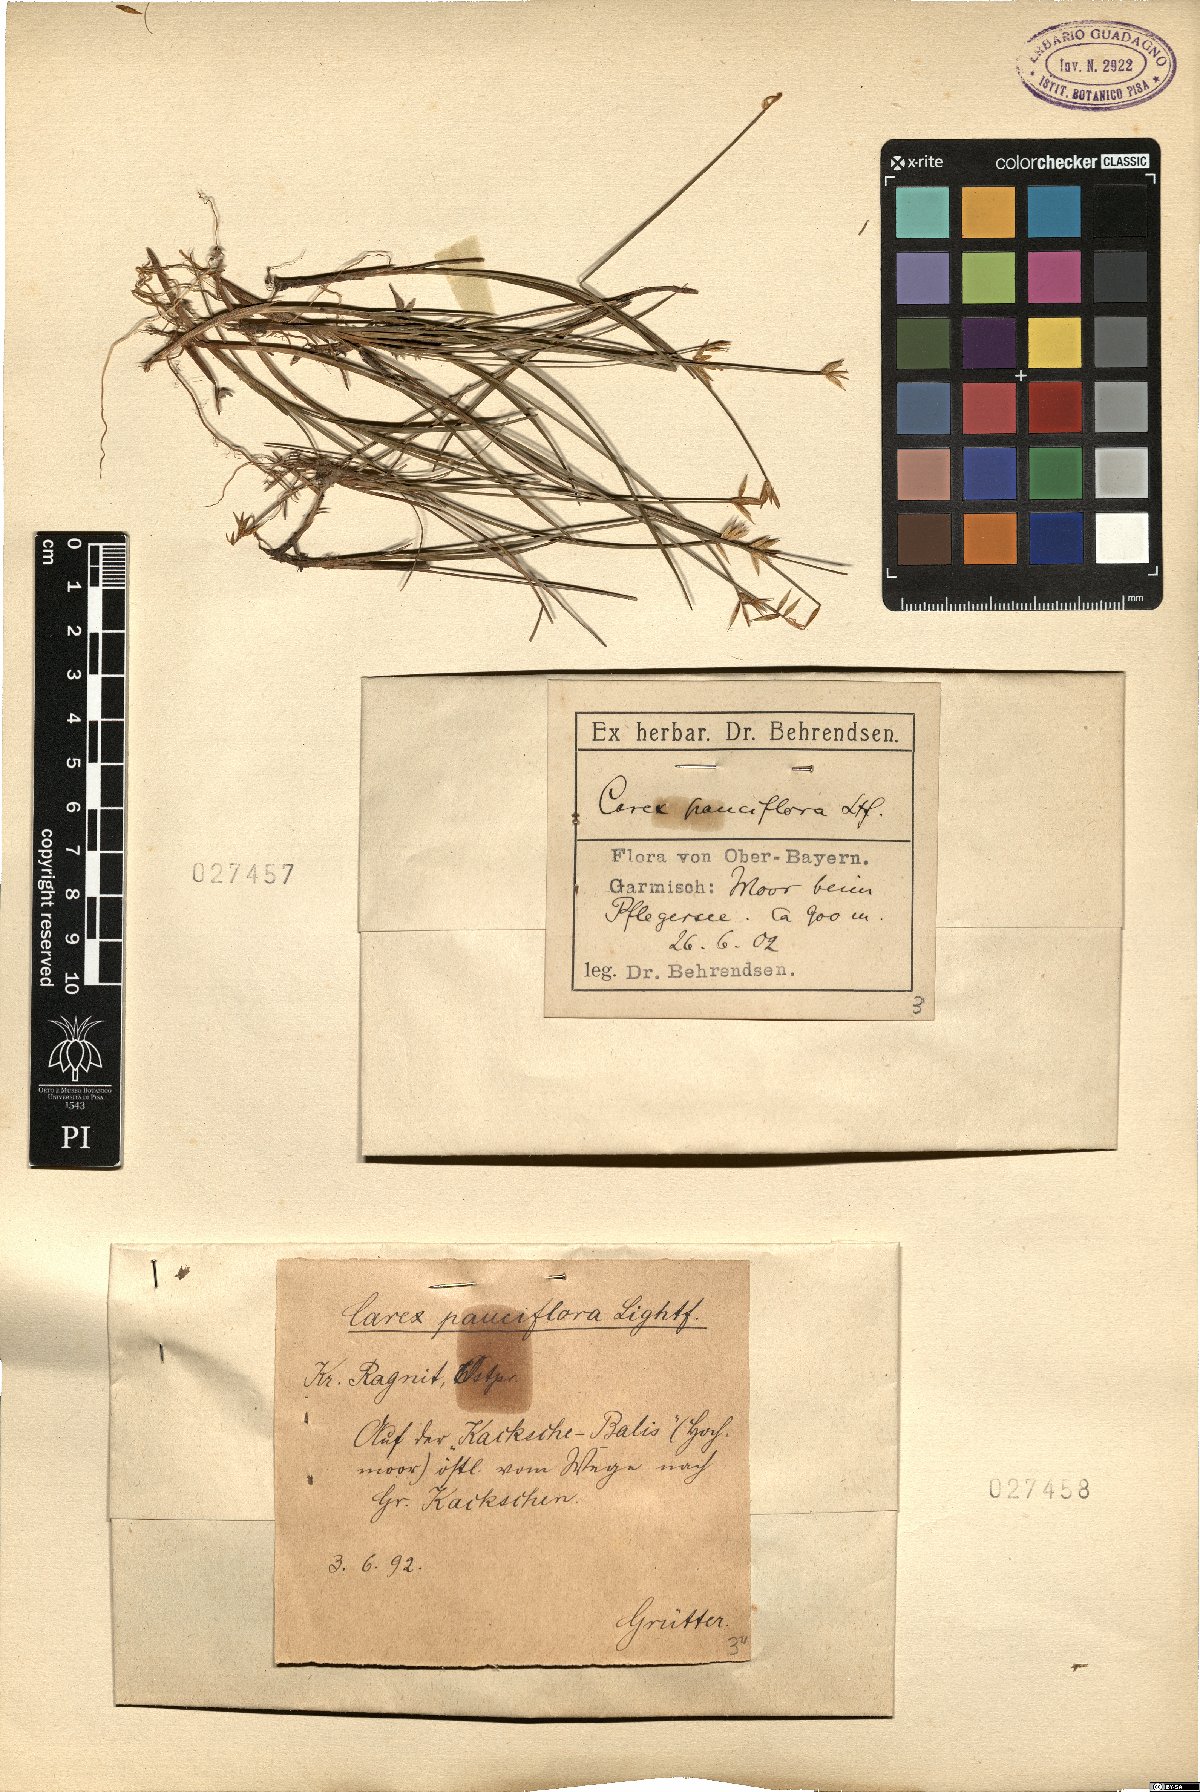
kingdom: Plantae
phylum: Tracheophyta
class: Liliopsida
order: Poales
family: Cyperaceae
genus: Carex
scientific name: Carex pauciflora
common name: Few-flowered sedge
